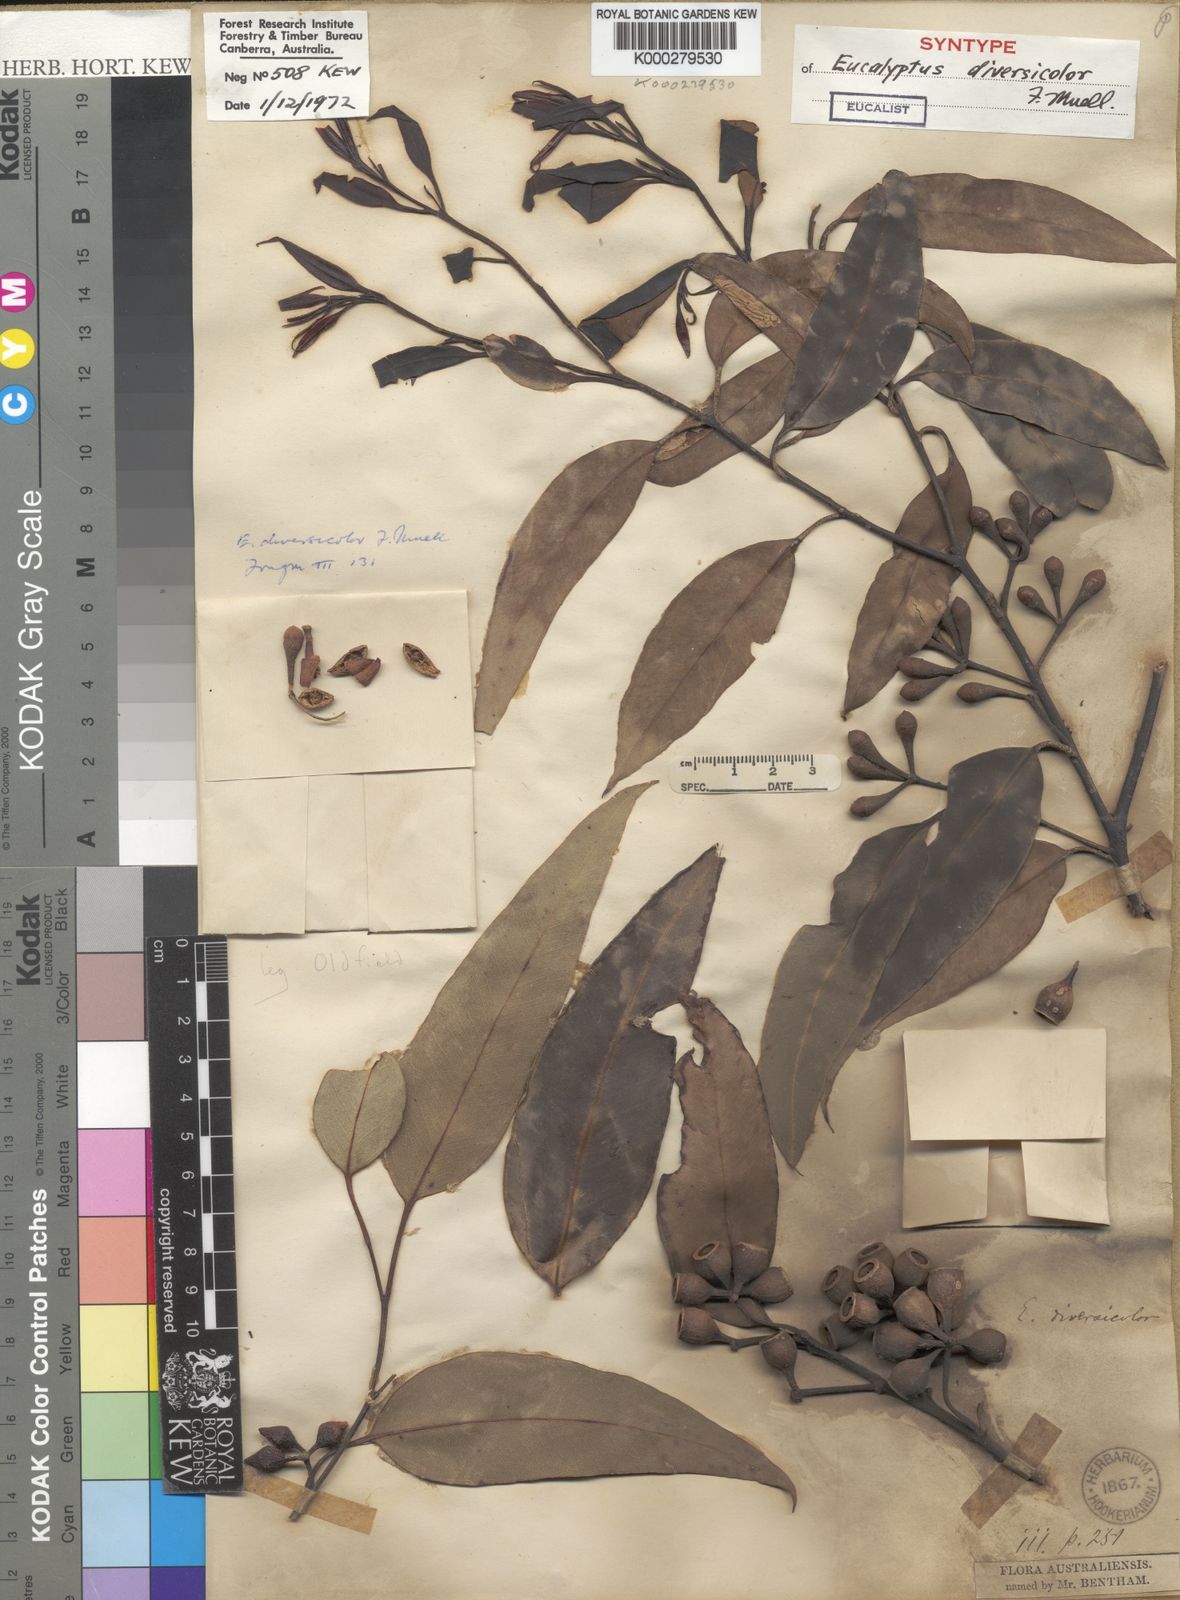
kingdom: Plantae
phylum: Tracheophyta
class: Magnoliopsida
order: Myrtales
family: Myrtaceae
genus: Eucalyptus
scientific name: Eucalyptus diversicolor
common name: Karri
